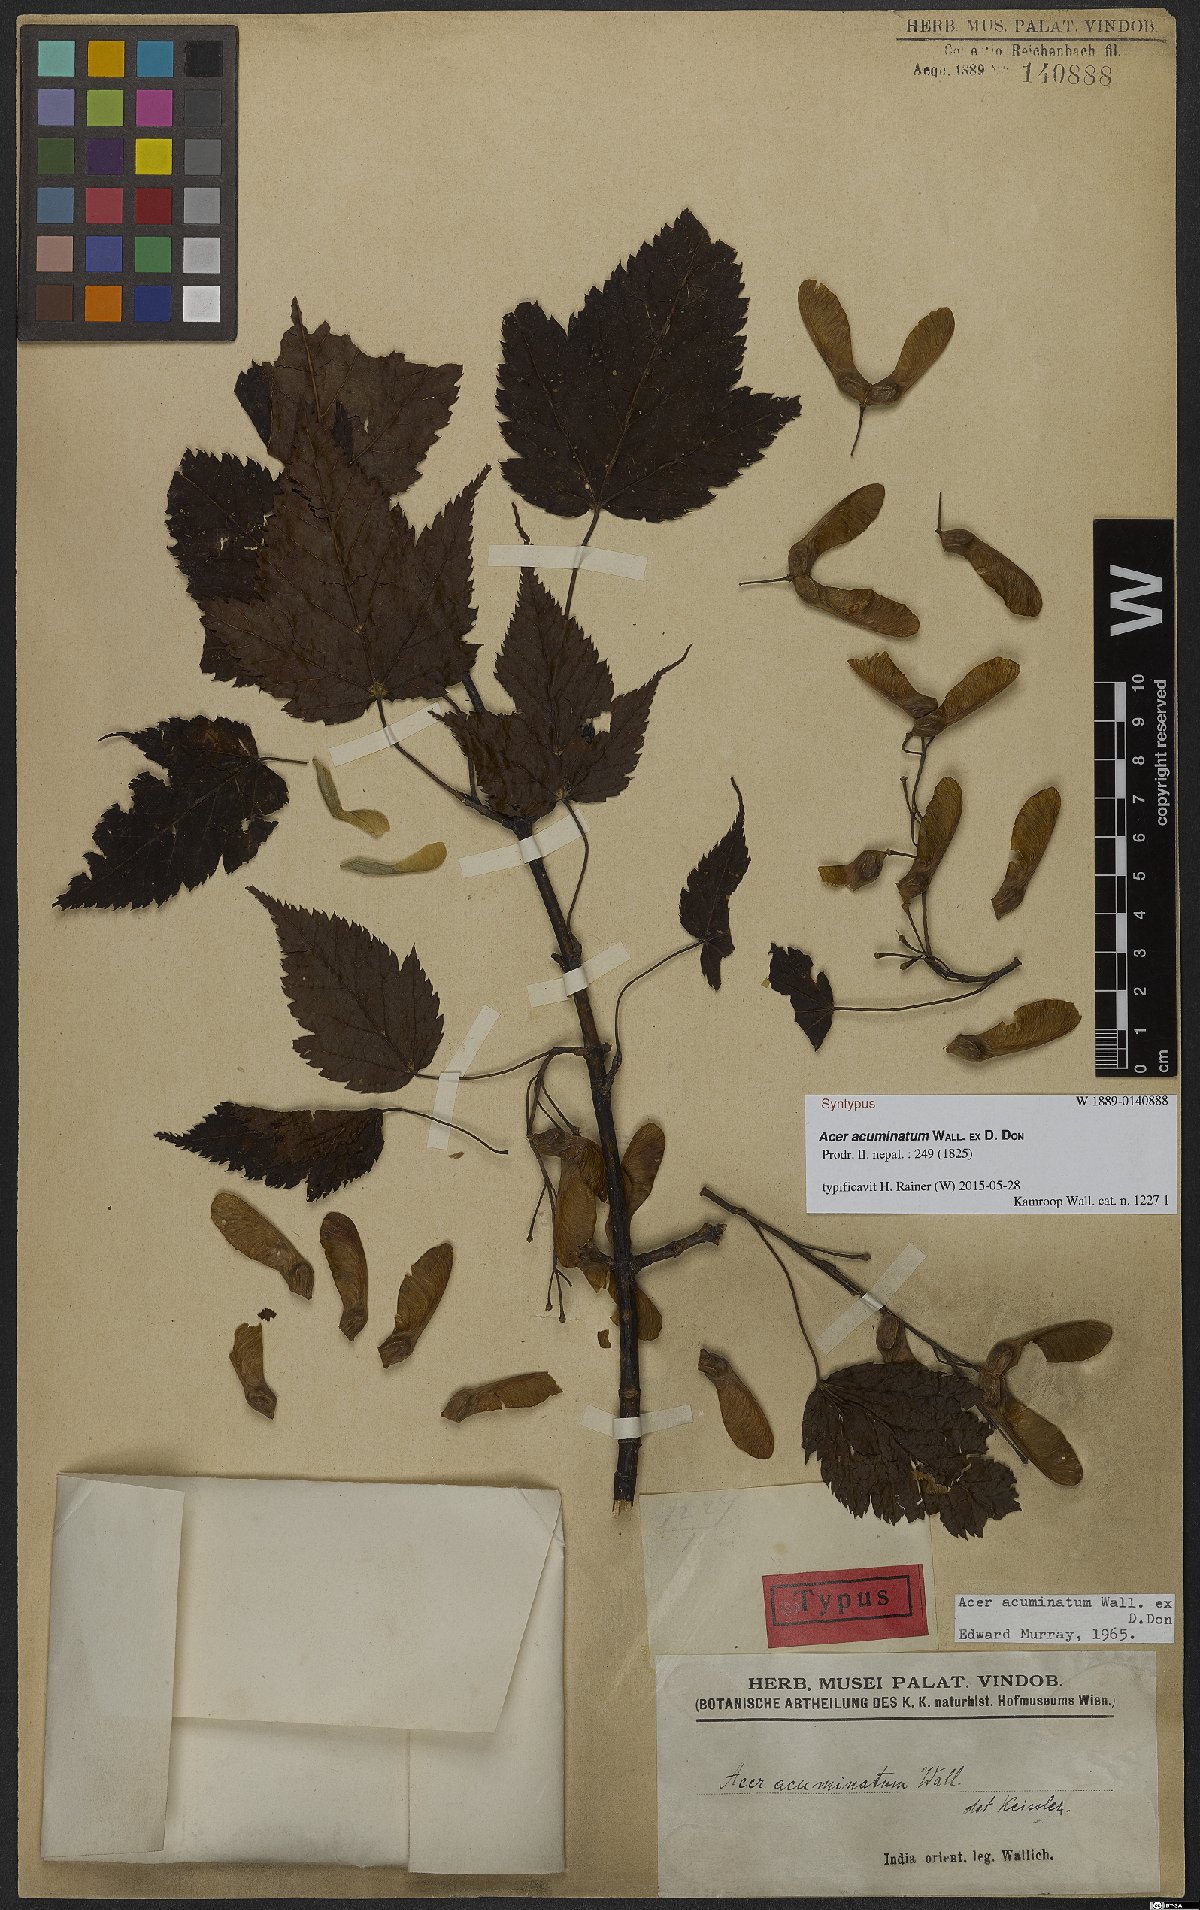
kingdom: Plantae
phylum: Tracheophyta
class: Magnoliopsida
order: Sapindales
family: Sapindaceae
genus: Acer
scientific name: Acer acuminatum
